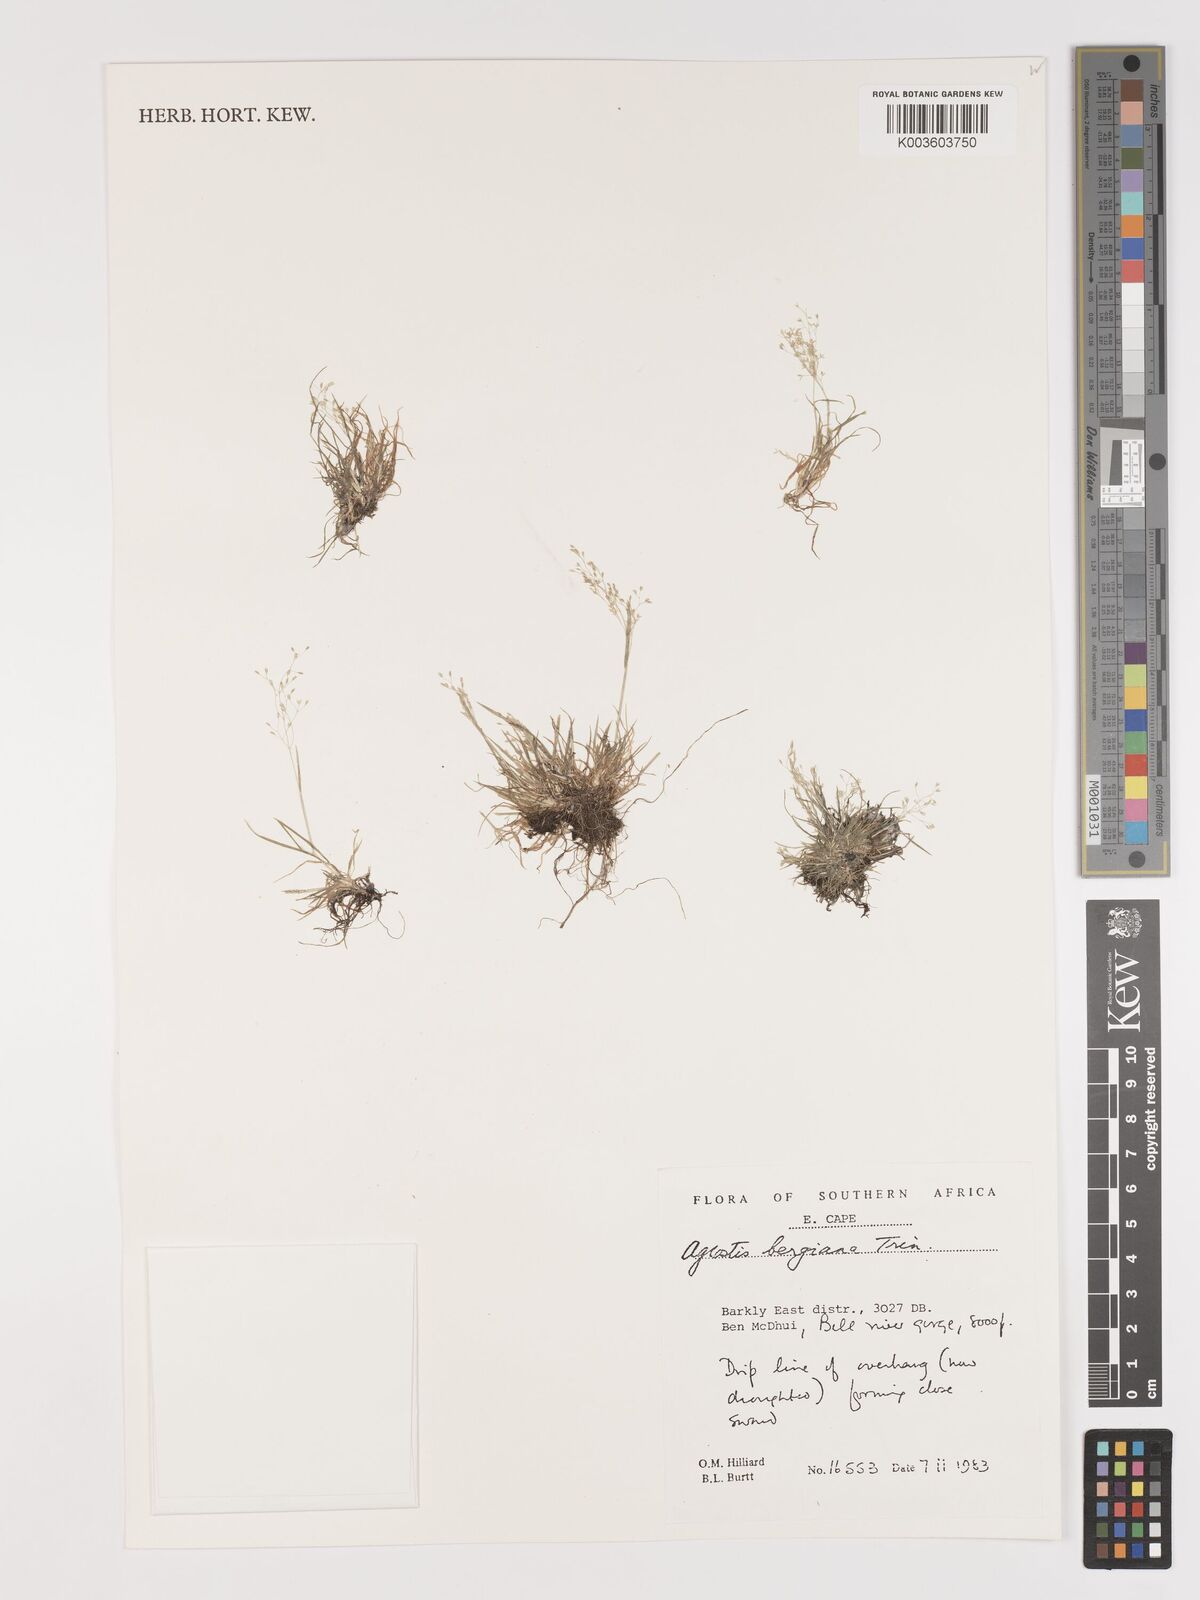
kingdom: Plantae
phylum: Tracheophyta
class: Liliopsida
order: Poales
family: Poaceae
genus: Agrostis
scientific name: Agrostis bergiana
